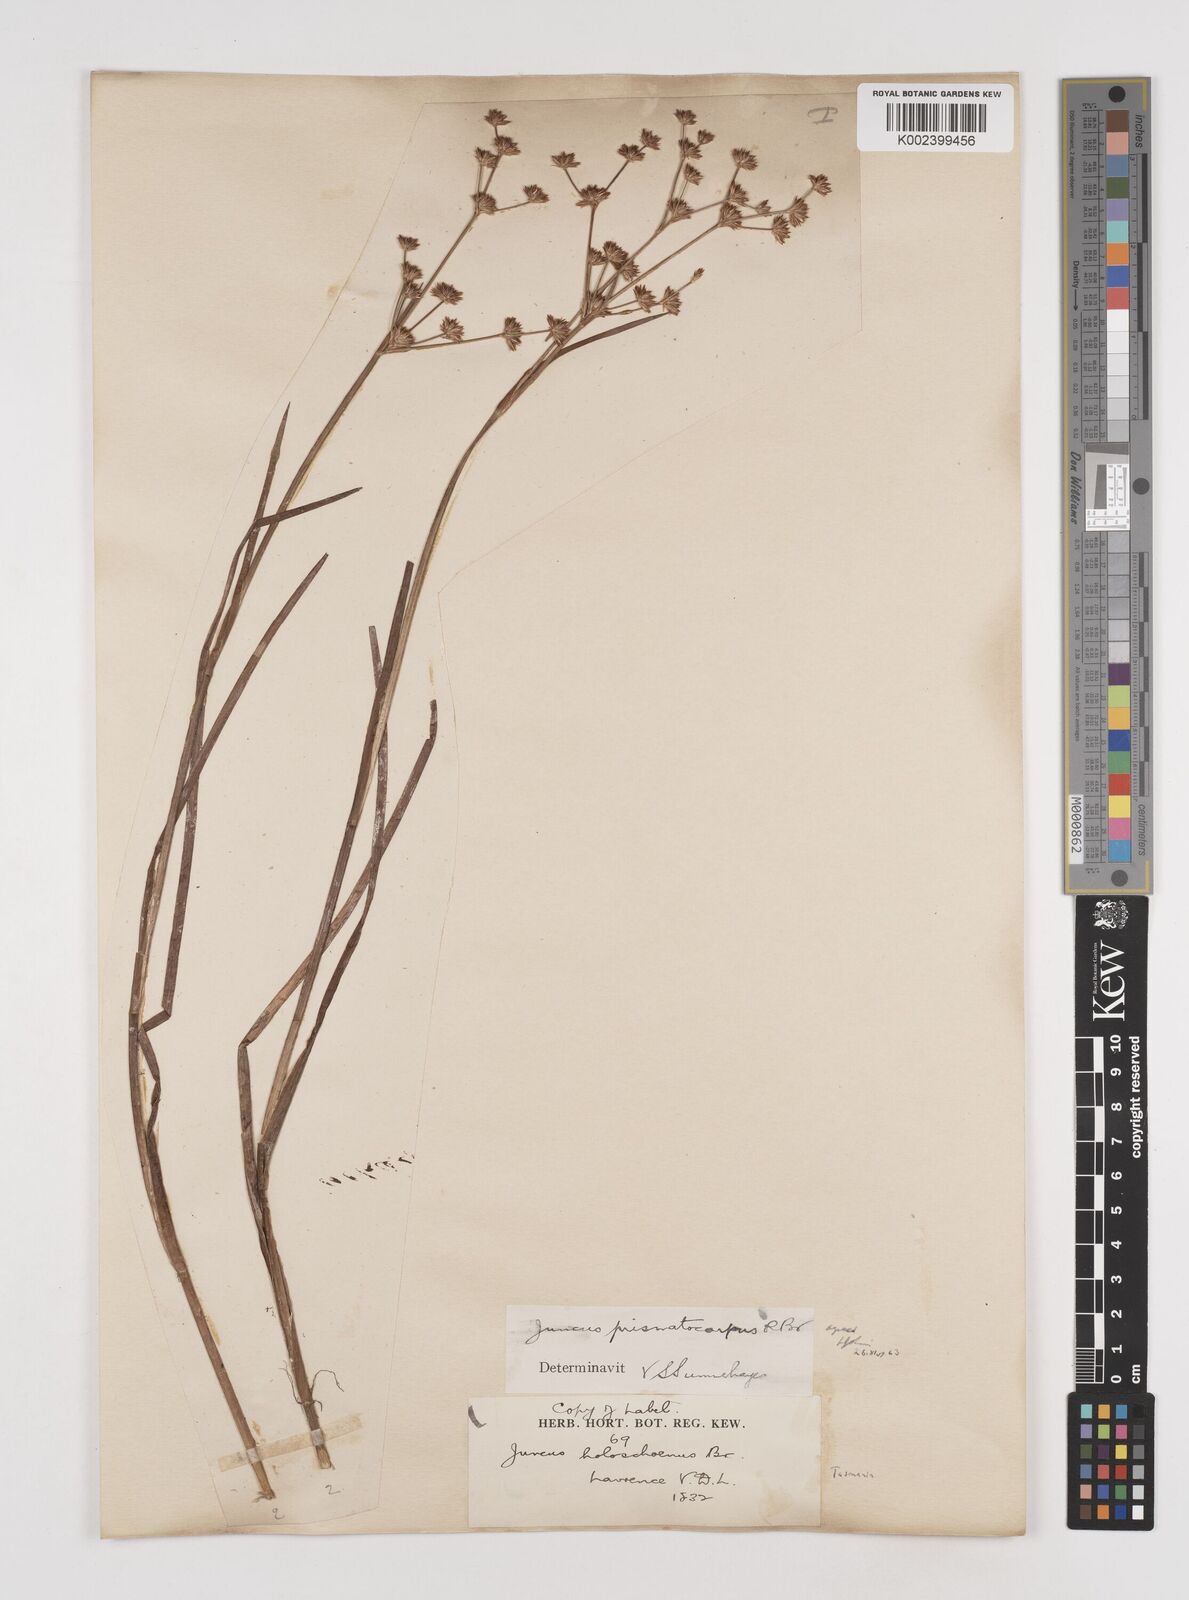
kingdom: Plantae
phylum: Tracheophyta
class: Liliopsida
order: Poales
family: Juncaceae
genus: Juncus
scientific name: Juncus prismatocarpus
